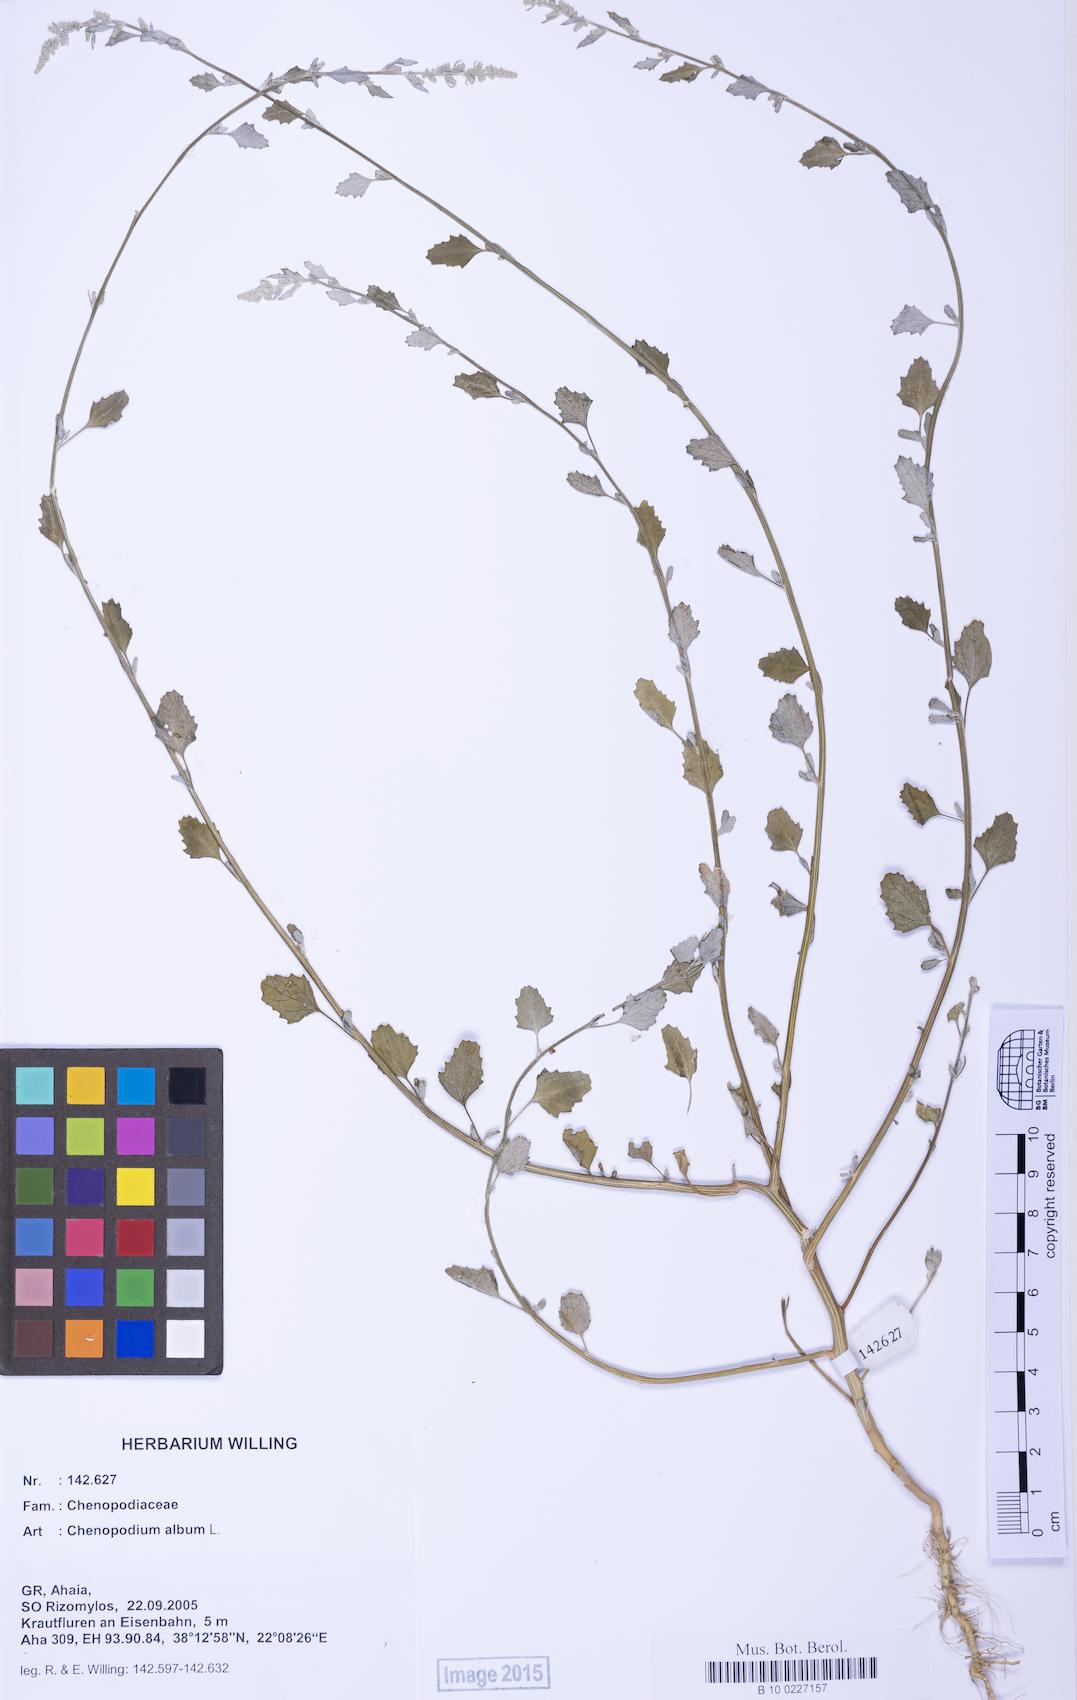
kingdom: Plantae
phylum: Tracheophyta
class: Magnoliopsida
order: Caryophyllales
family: Amaranthaceae
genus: Chenopodium
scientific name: Chenopodium album
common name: Fat-hen
